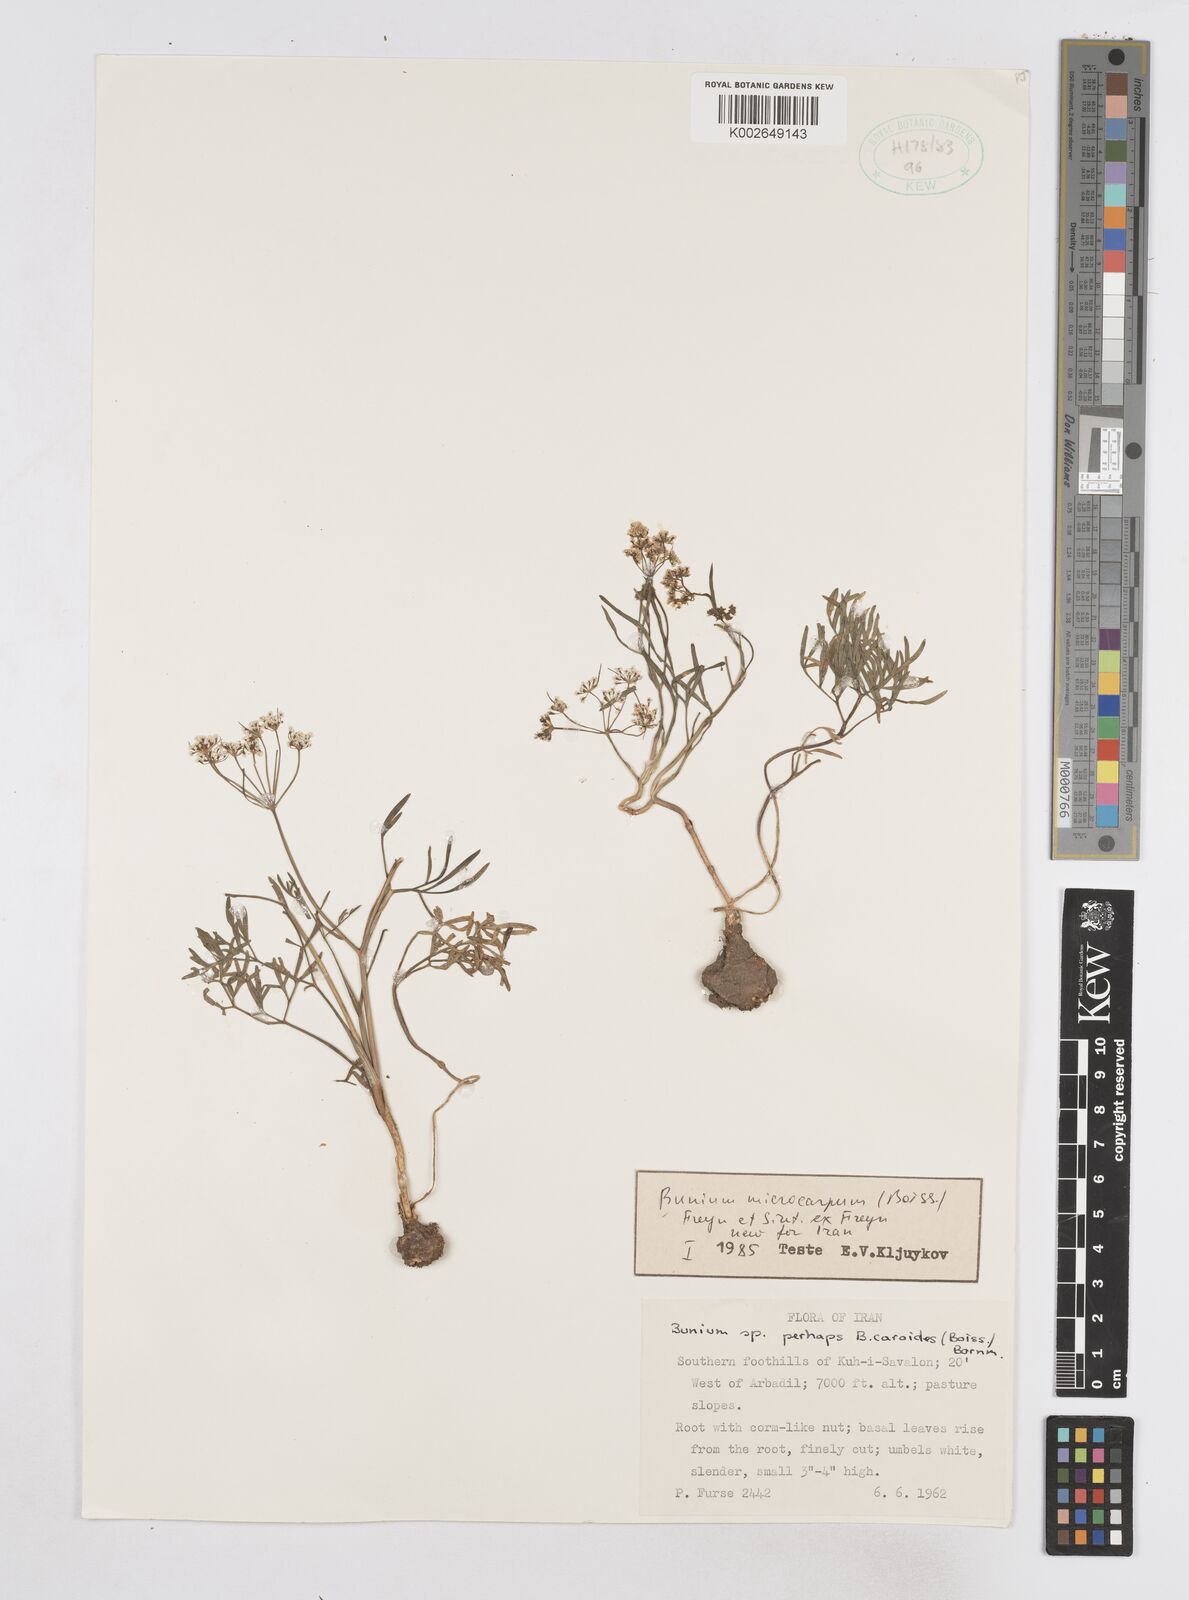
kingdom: Plantae
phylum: Tracheophyta
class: Magnoliopsida
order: Apiales
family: Apiaceae
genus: Bunium
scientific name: Bunium microcarpum
